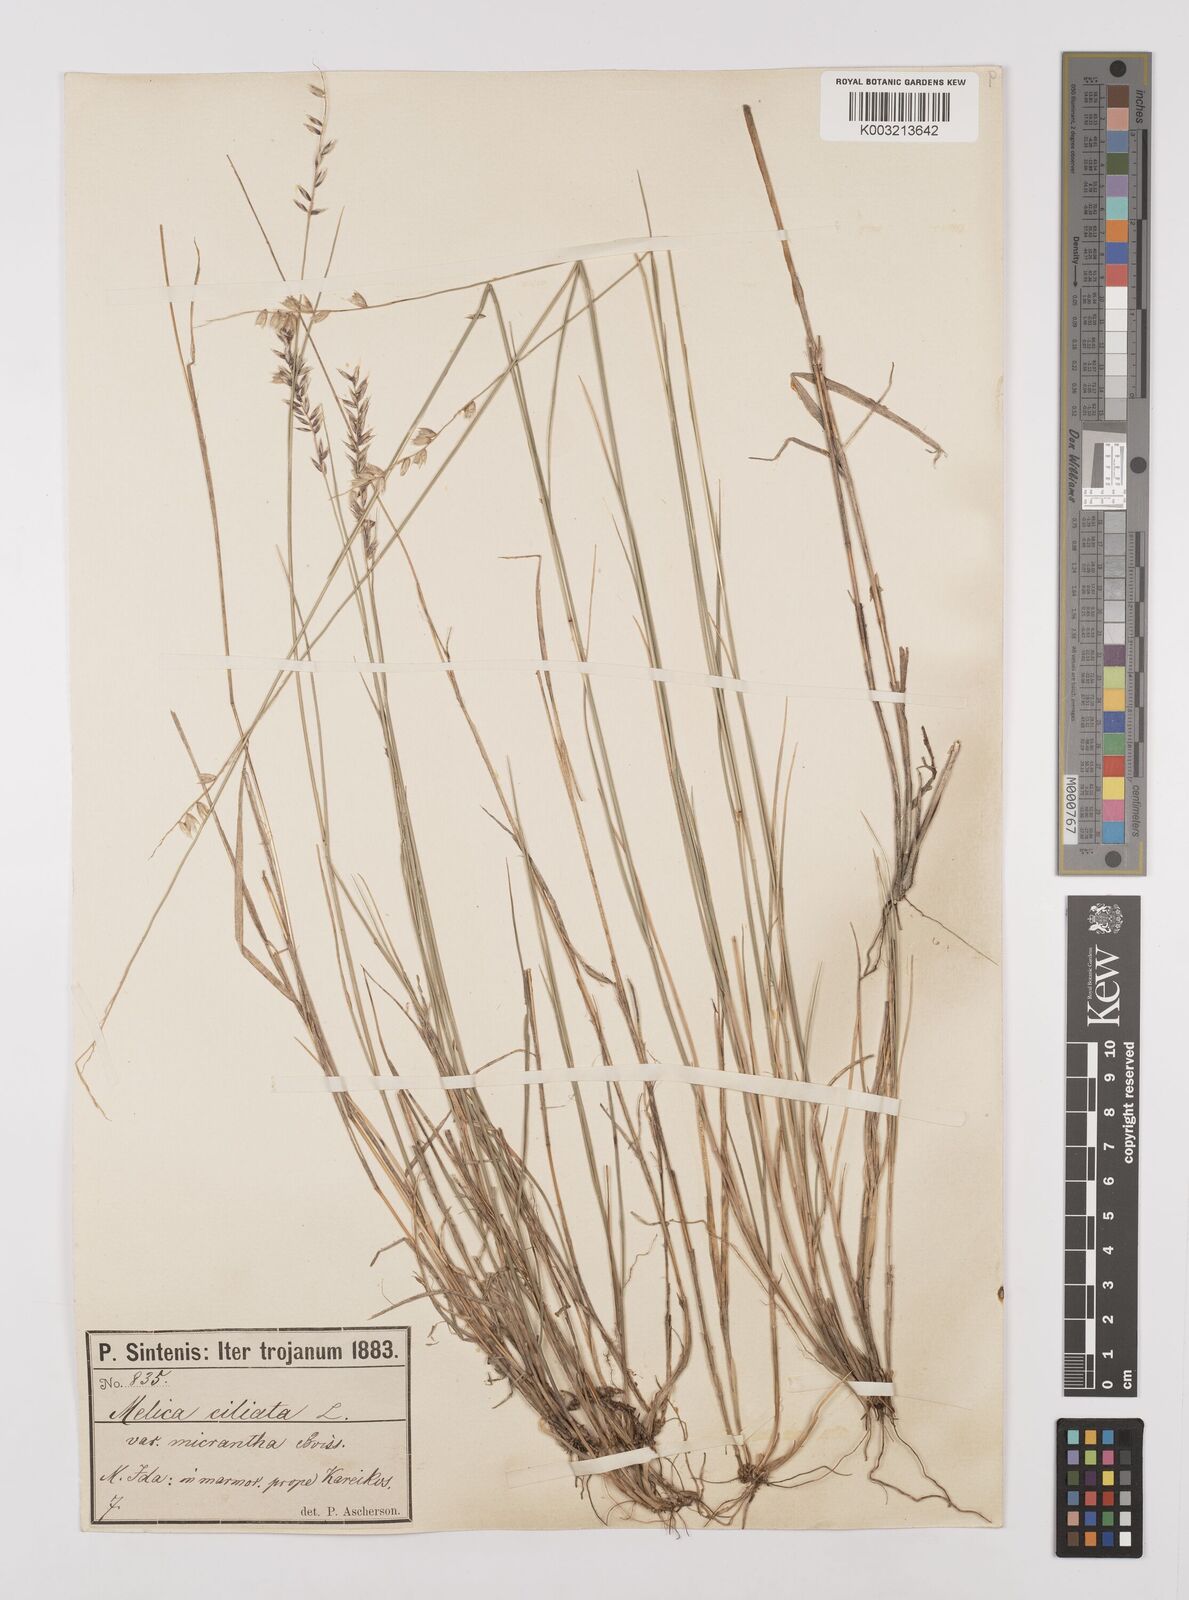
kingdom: Plantae
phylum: Tracheophyta
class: Liliopsida
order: Poales
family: Poaceae
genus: Melica
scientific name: Melica ciliata
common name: Hairy melicgrass
